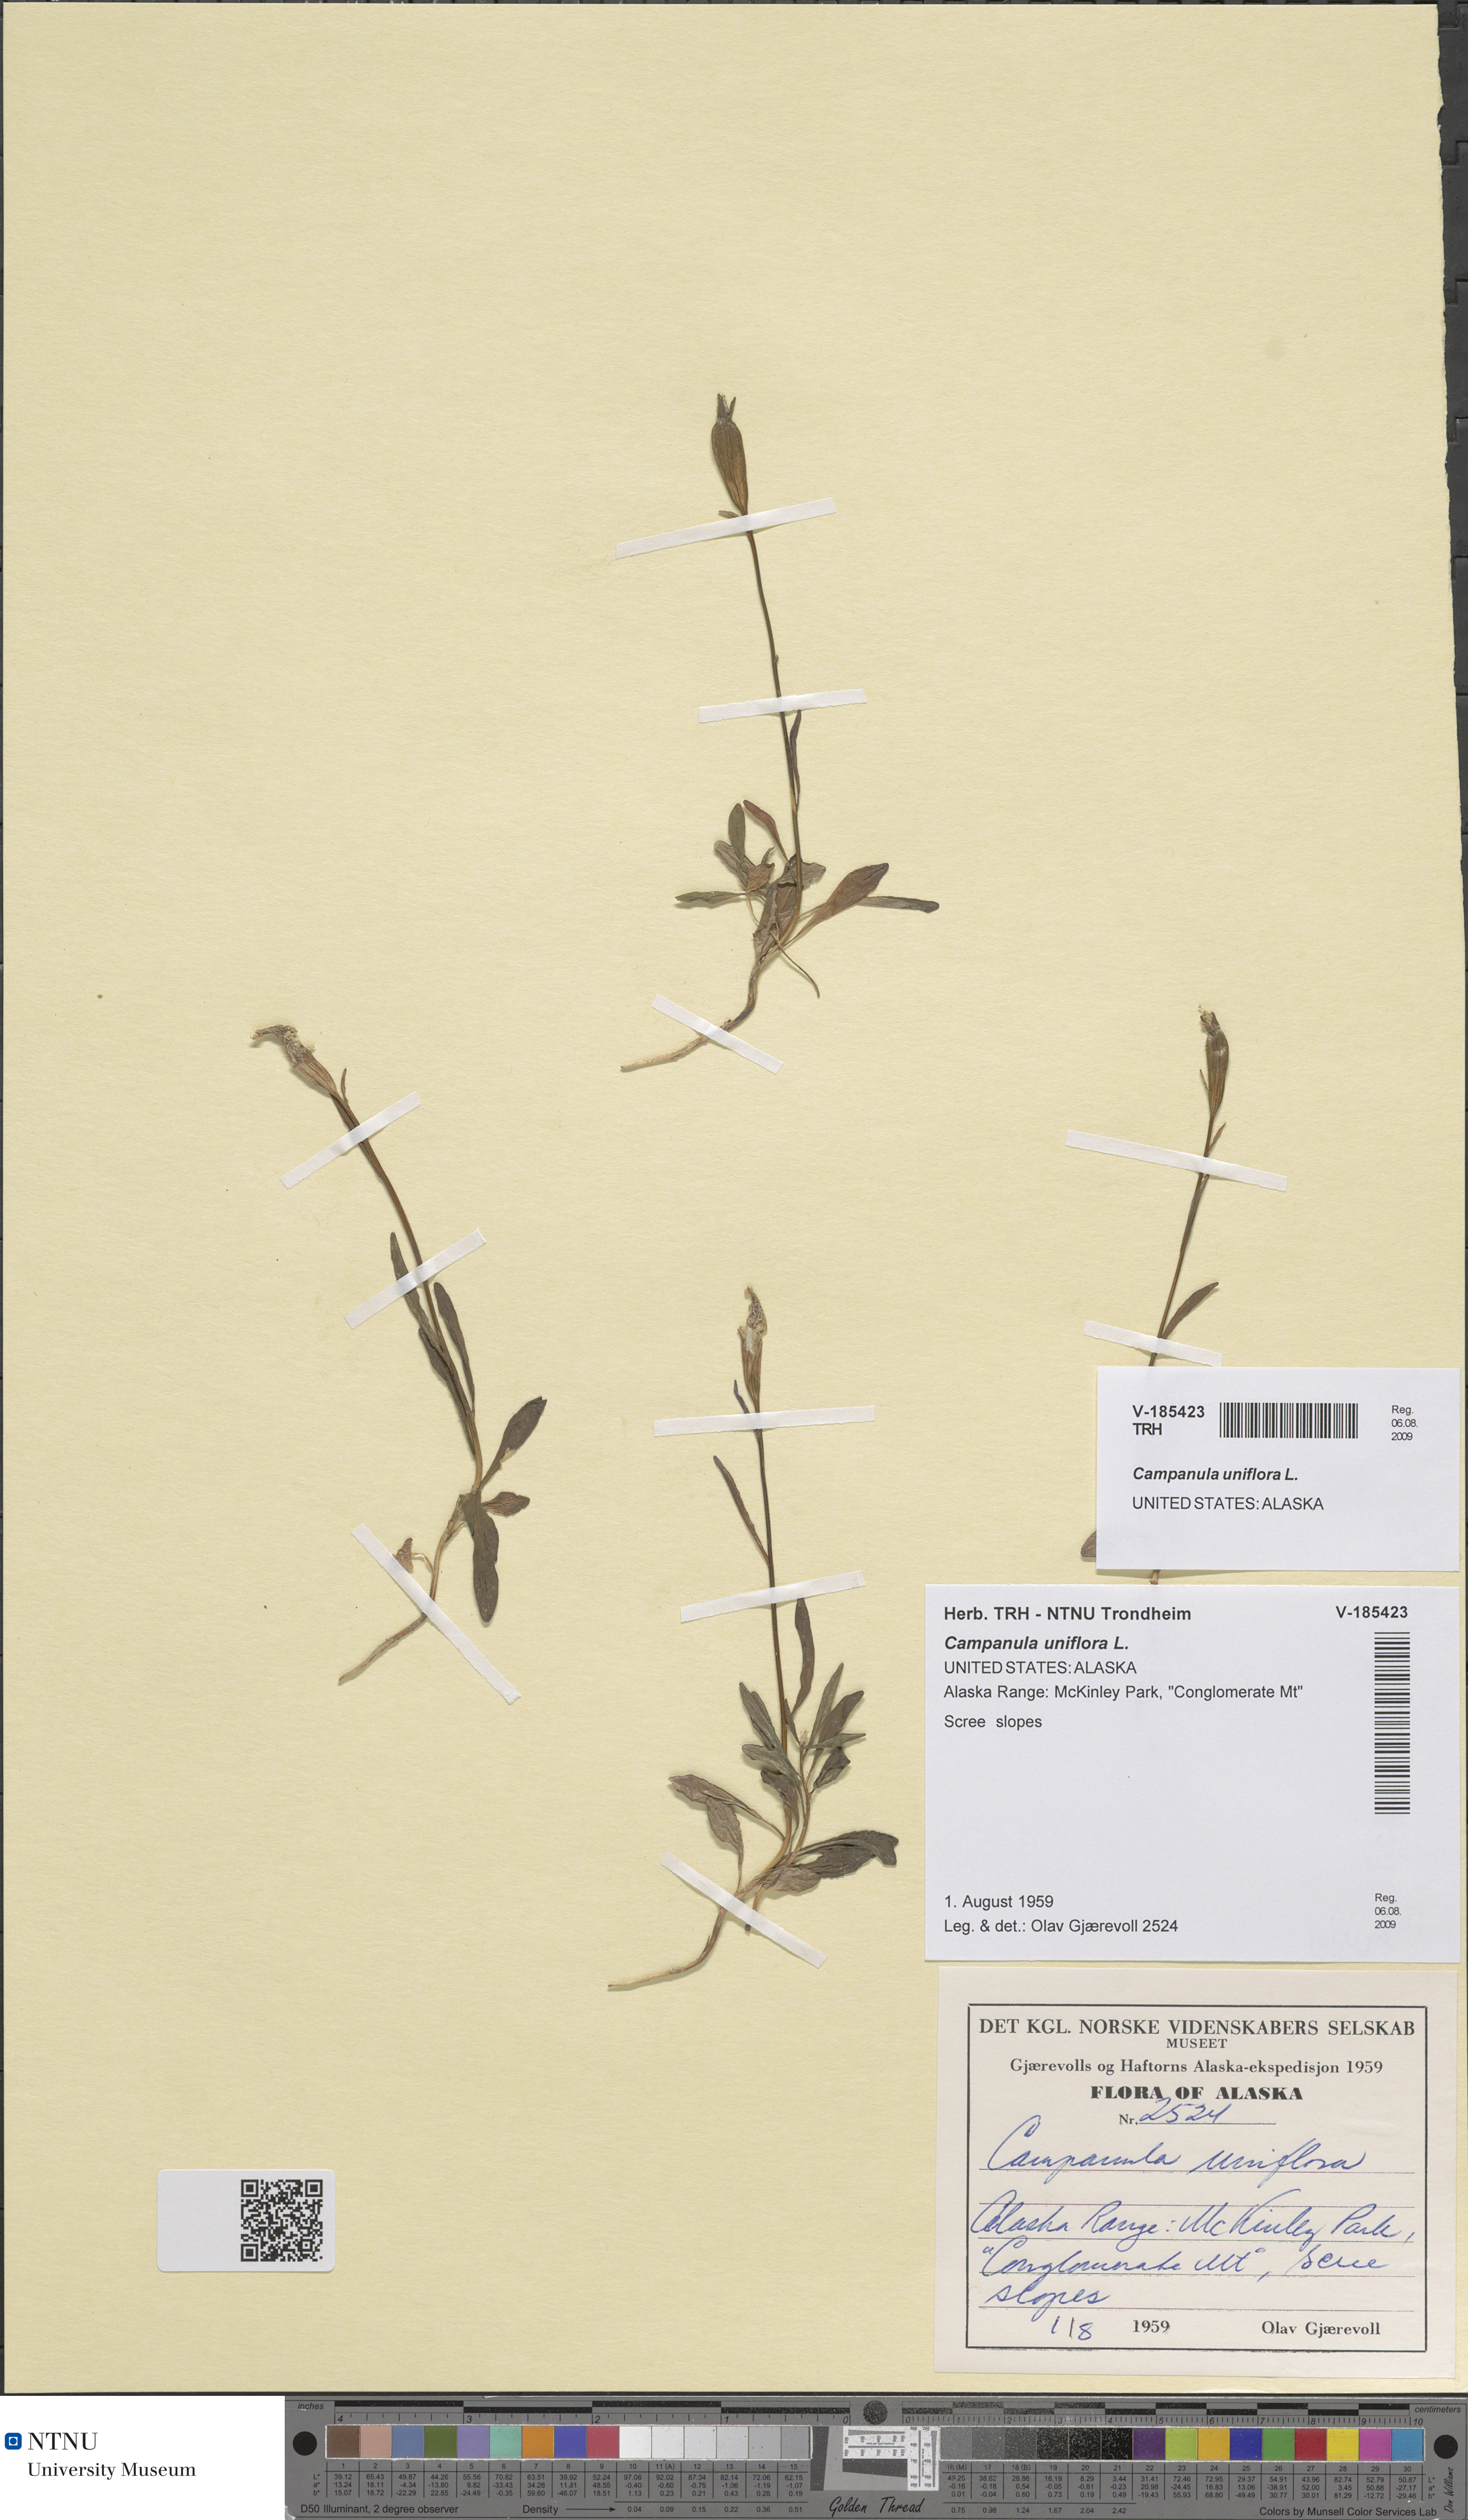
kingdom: Plantae
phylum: Tracheophyta
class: Magnoliopsida
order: Asterales
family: Campanulaceae
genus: Melanocalyx
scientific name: Melanocalyx uniflora
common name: Alpine harebell
